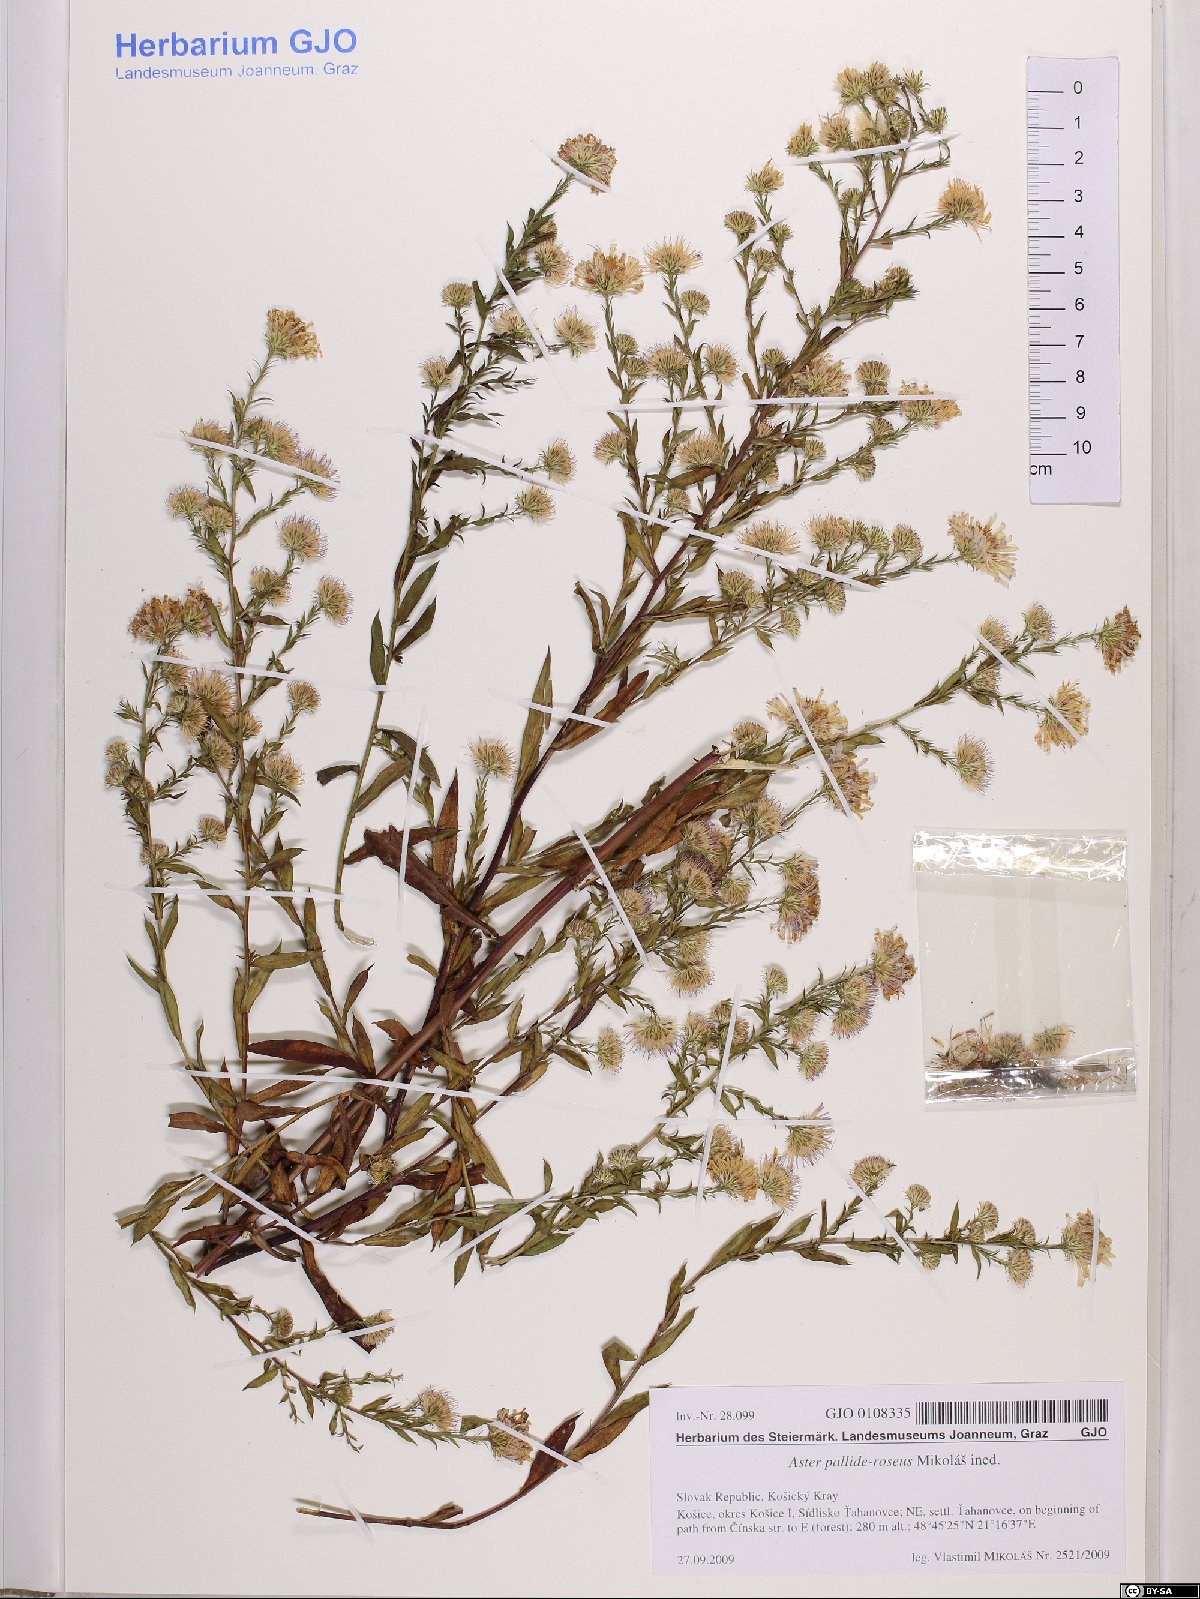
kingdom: Plantae
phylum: Tracheophyta
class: Magnoliopsida
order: Asterales
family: Asteraceae
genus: Aster
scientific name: Aster
